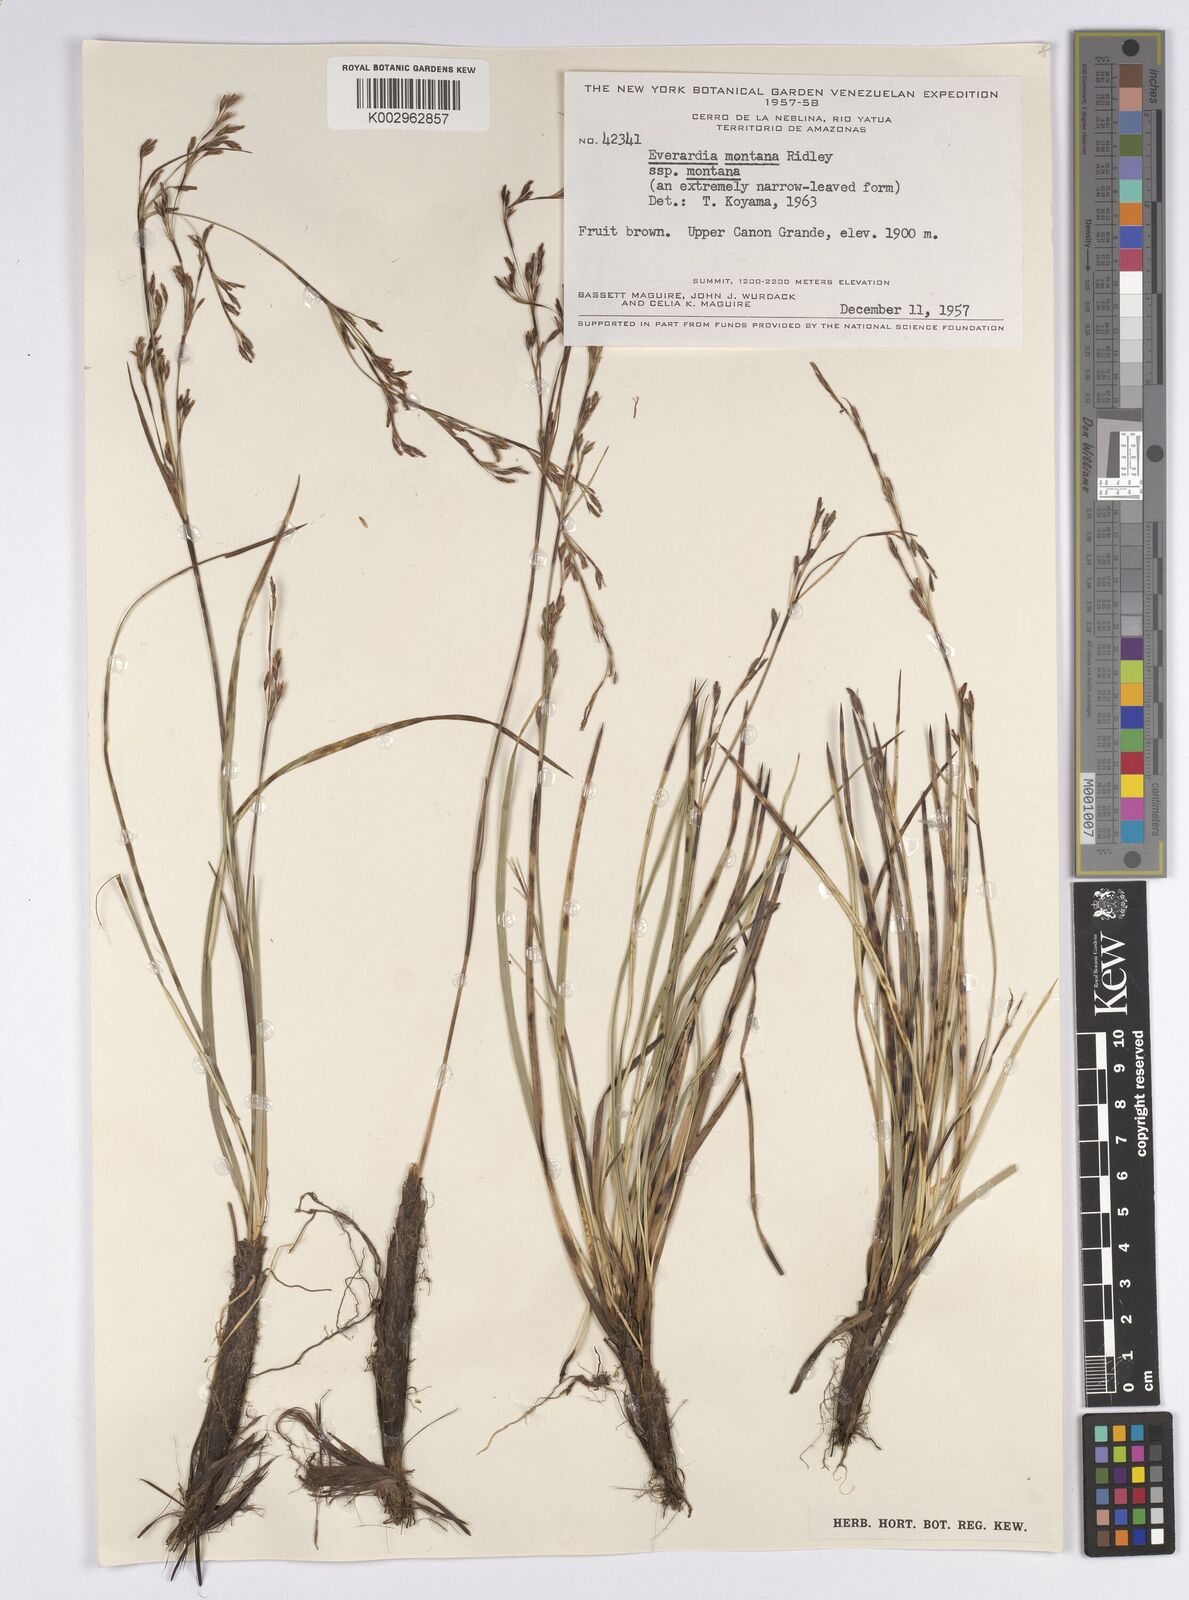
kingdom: Plantae
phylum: Tracheophyta
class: Liliopsida
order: Poales
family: Cyperaceae
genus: Cephalocarpus
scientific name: Cephalocarpus montanus
